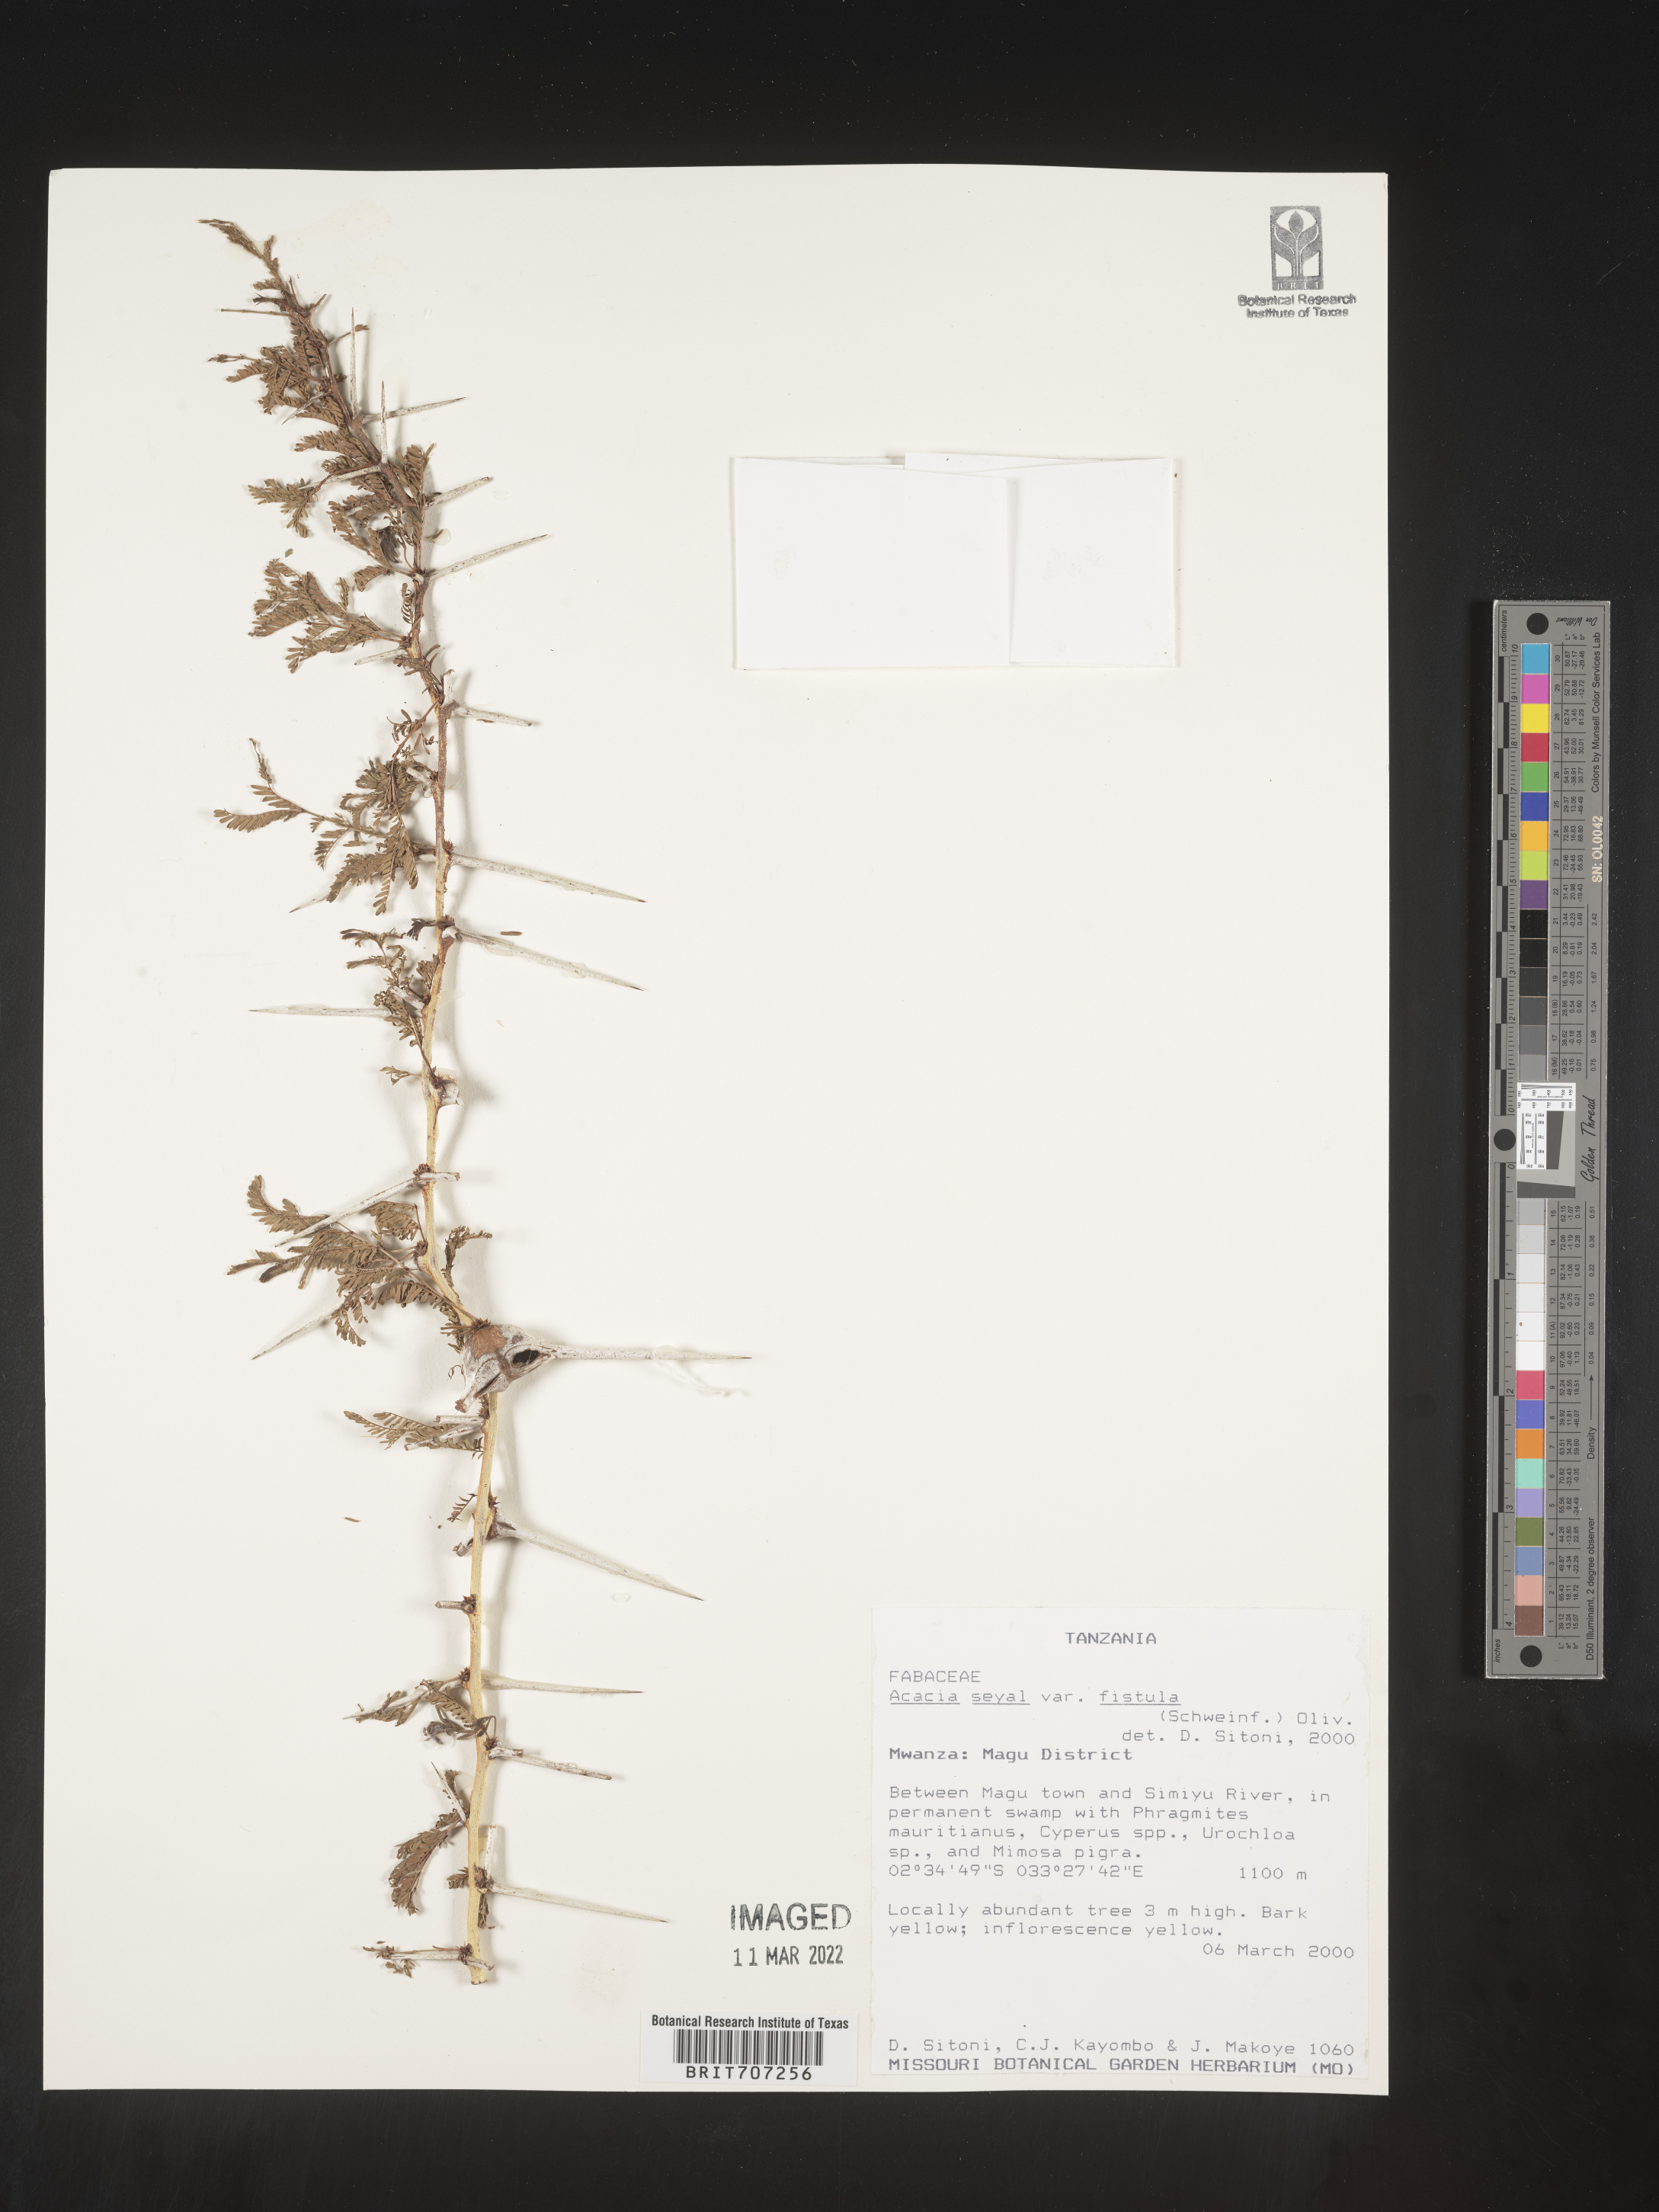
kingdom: Plantae
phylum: Tracheophyta
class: Magnoliopsida
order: Fabales
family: Fabaceae
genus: Acacia
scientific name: Acacia
